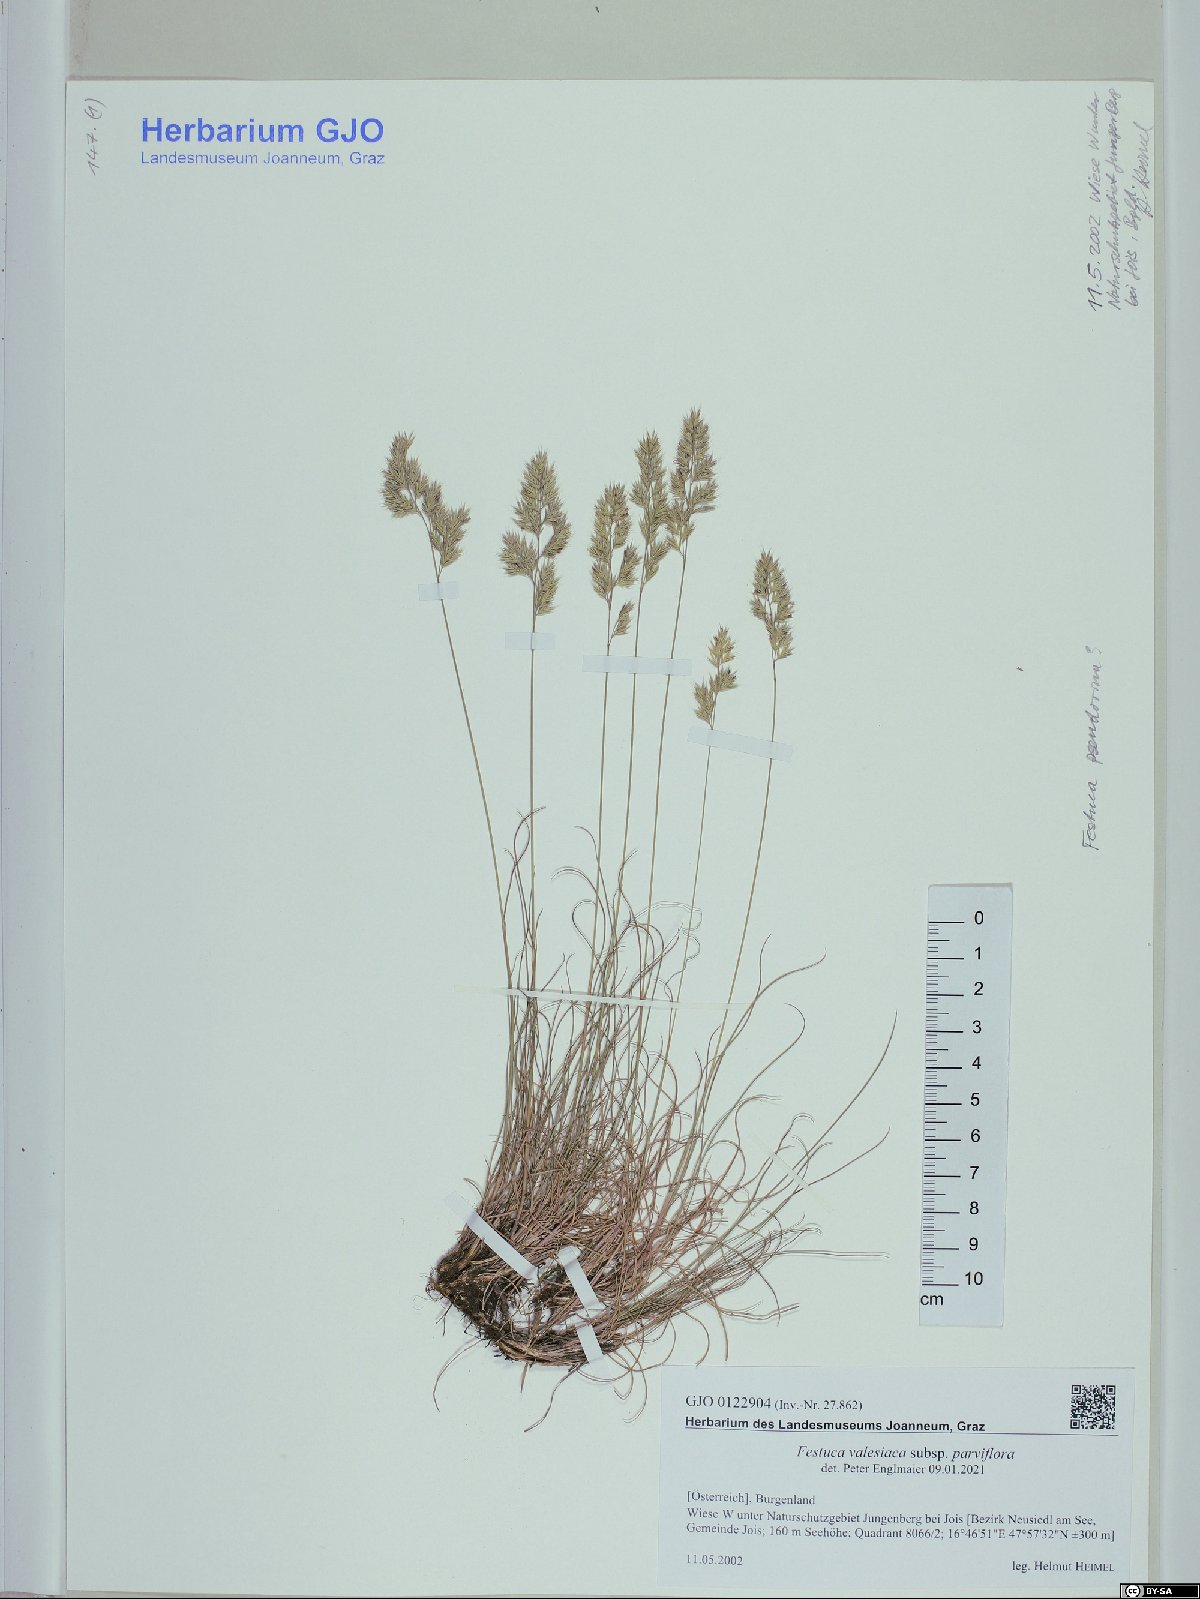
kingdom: Plantae
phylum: Tracheophyta
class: Liliopsida
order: Poales
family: Poaceae
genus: Festuca
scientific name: Festuca pulchra
